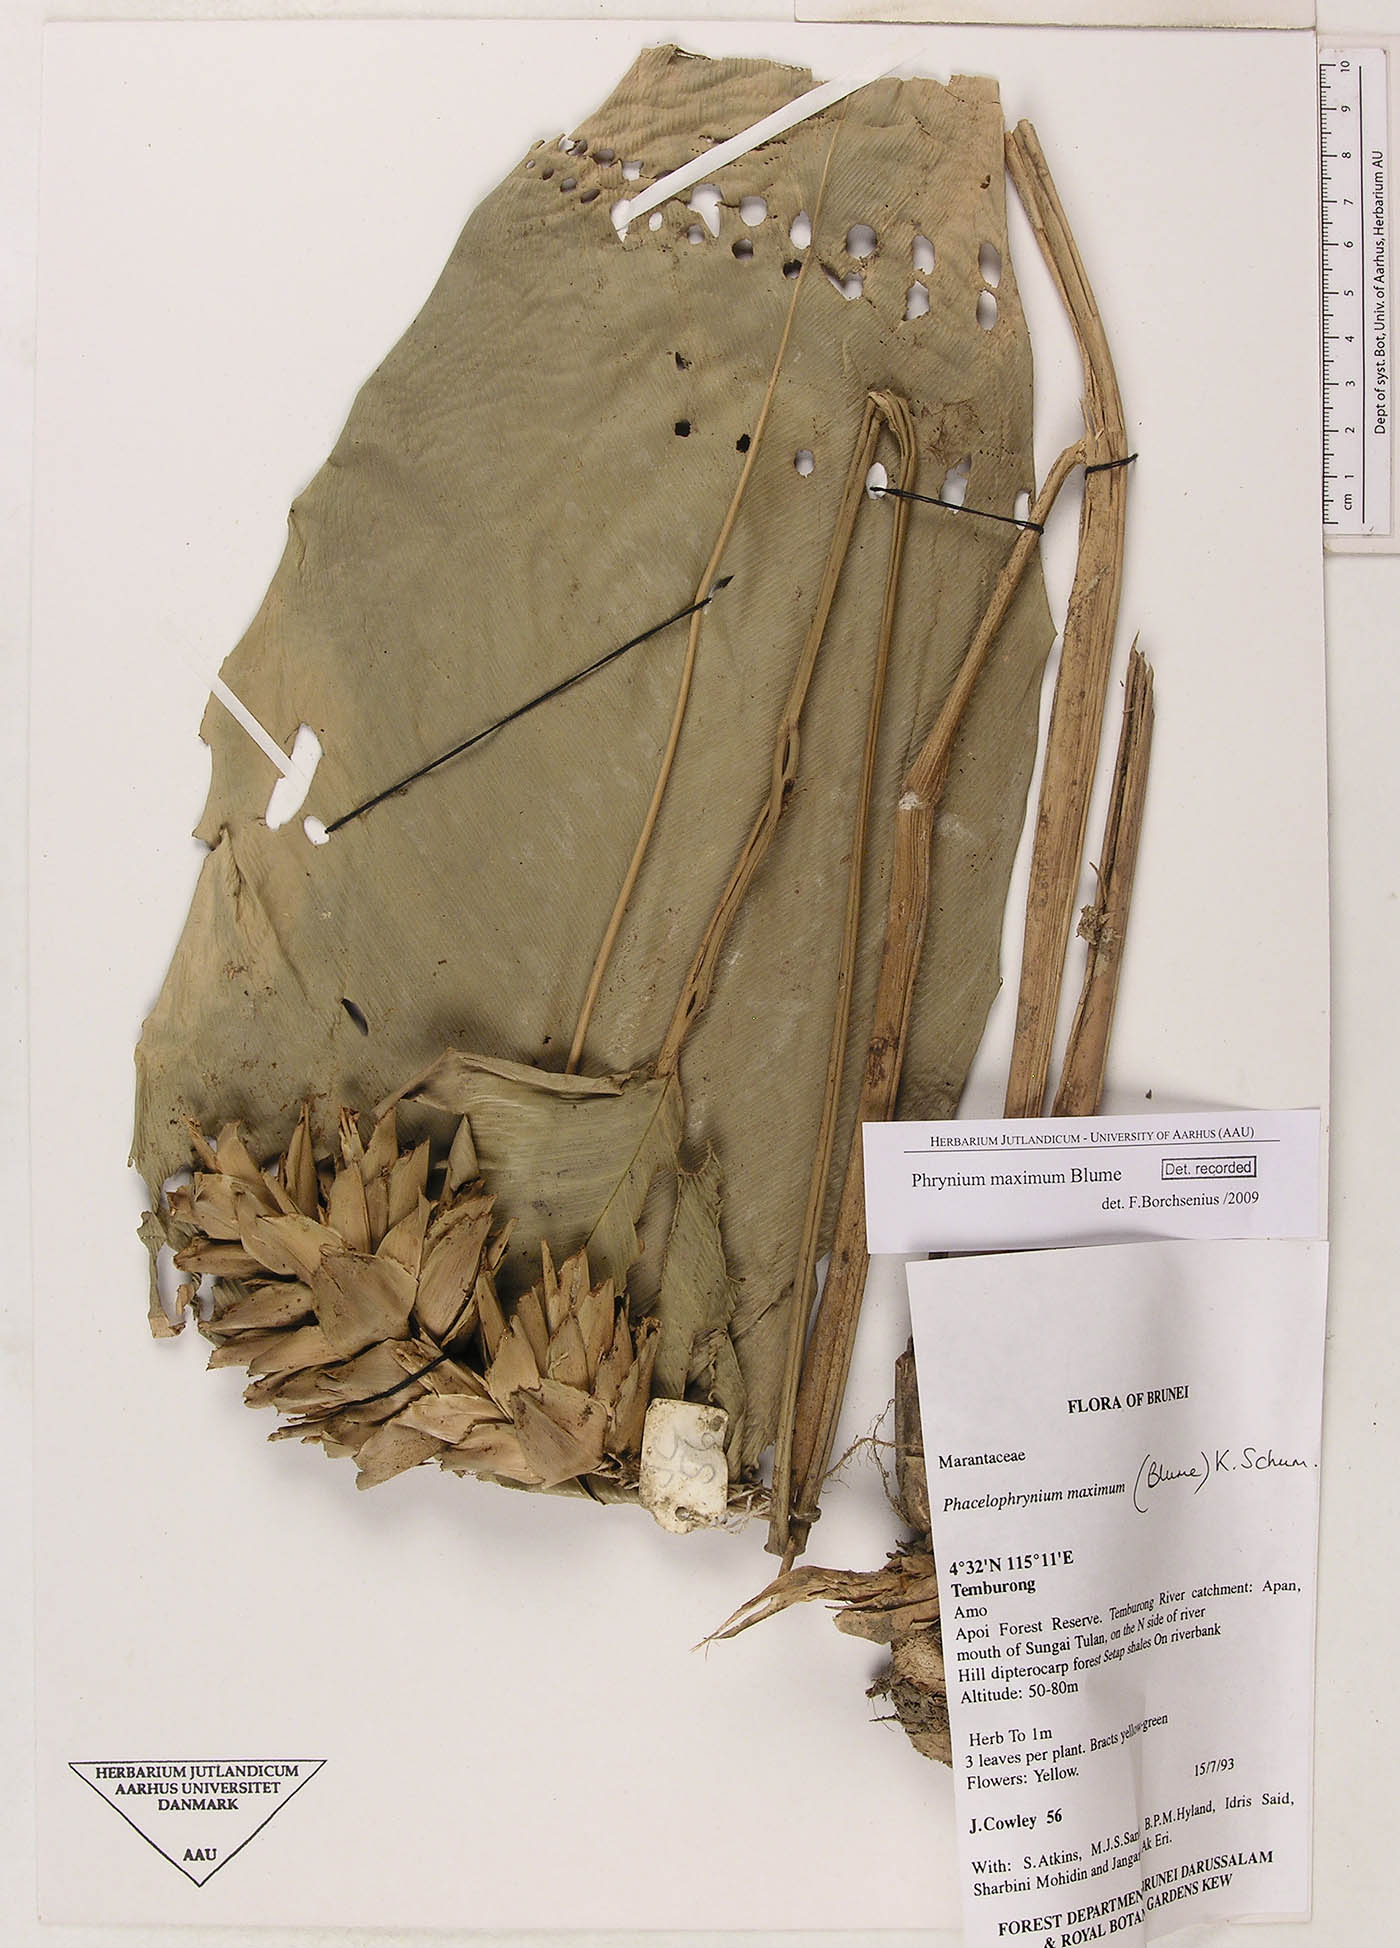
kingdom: Plantae
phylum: Tracheophyta
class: Liliopsida
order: Zingiberales
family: Marantaceae
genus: Phrynium
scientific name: Phrynium maximum
